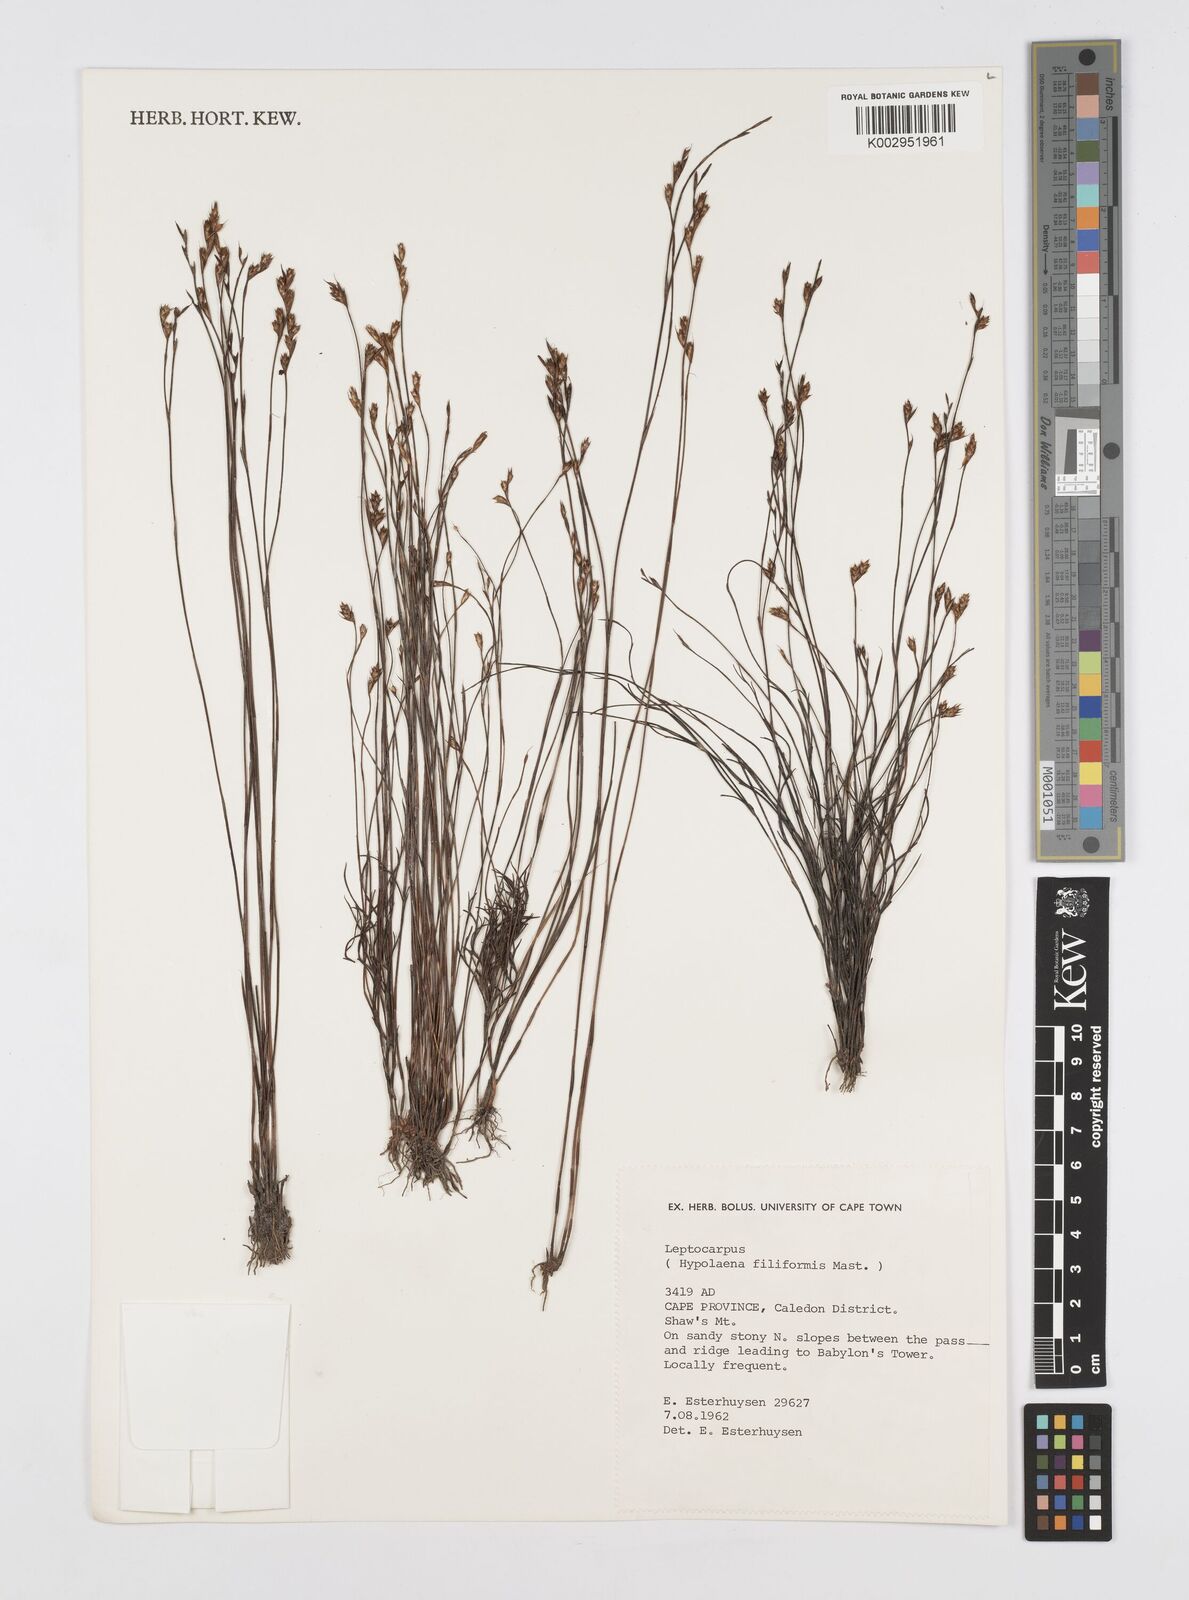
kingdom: Plantae
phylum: Tracheophyta
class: Liliopsida
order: Poales
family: Restionaceae
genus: Restio
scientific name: Restio filiformis
